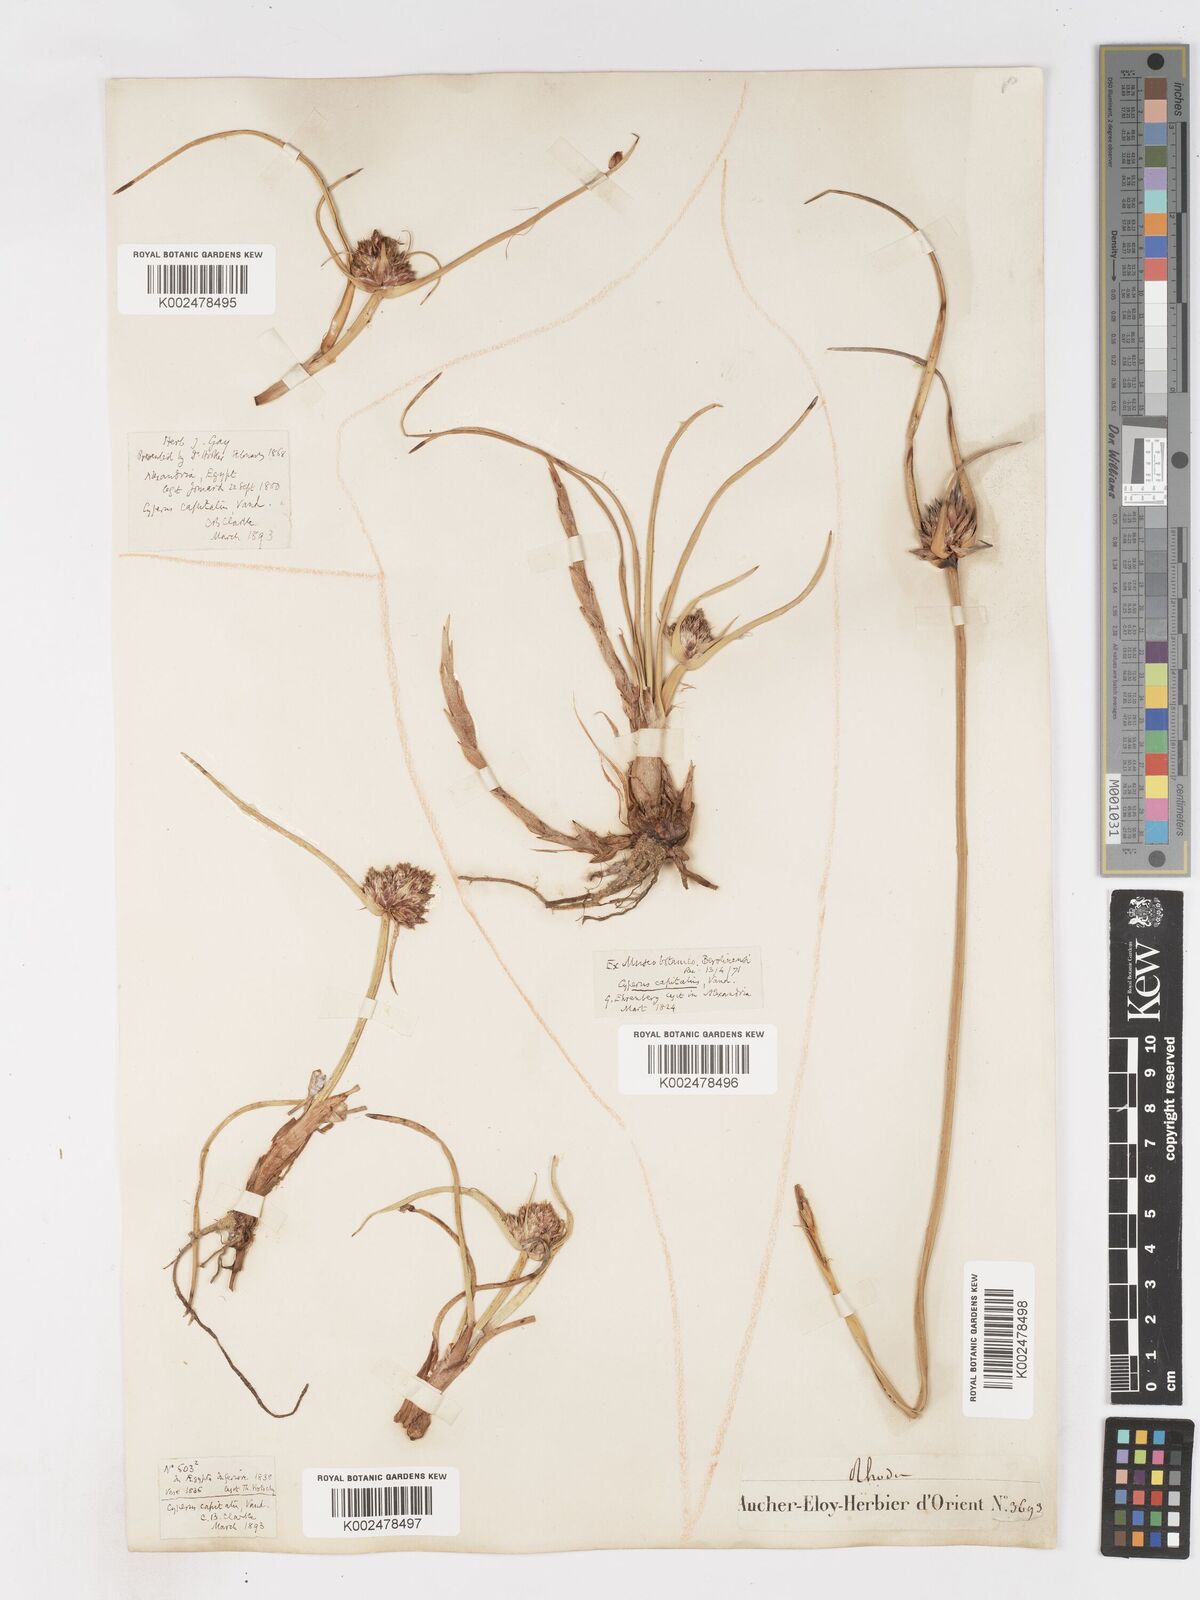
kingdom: Plantae
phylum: Tracheophyta
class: Liliopsida
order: Poales
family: Cyperaceae
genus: Cyperus
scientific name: Cyperus capitatus
